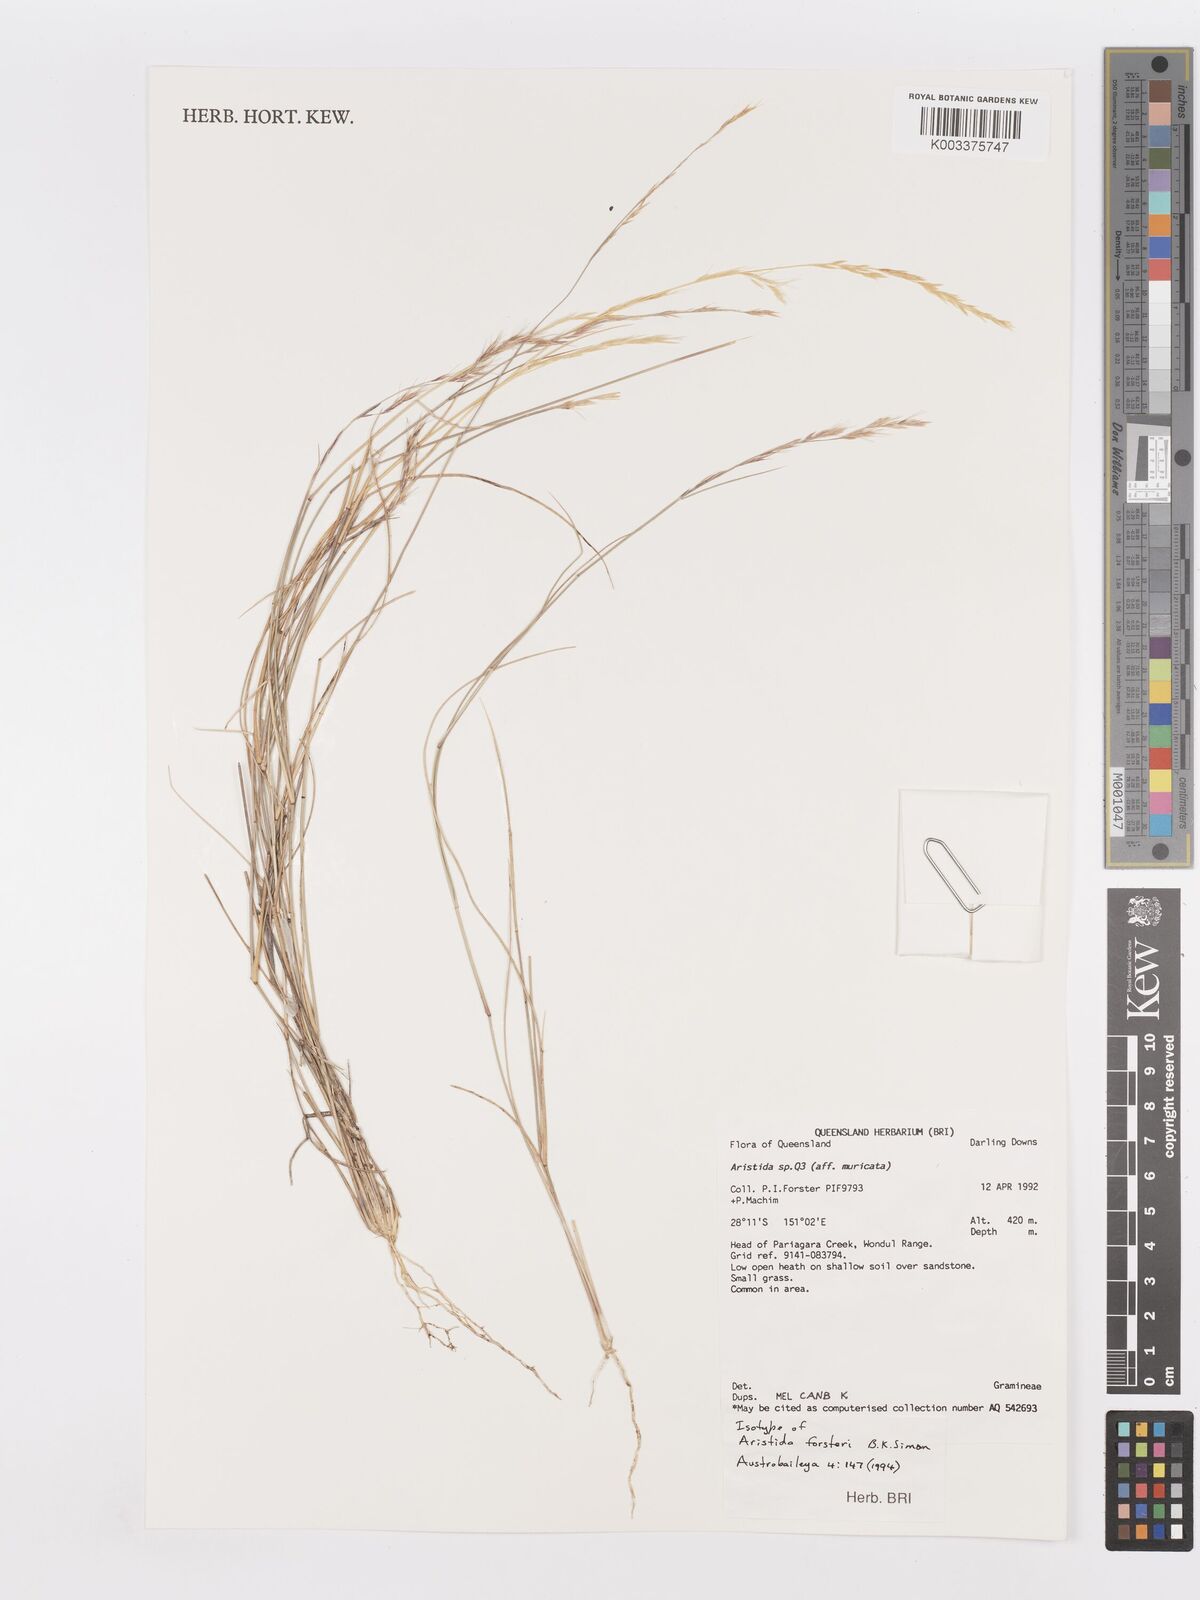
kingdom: Plantae
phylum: Tracheophyta
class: Liliopsida
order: Poales
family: Poaceae
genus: Aristida
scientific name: Aristida
